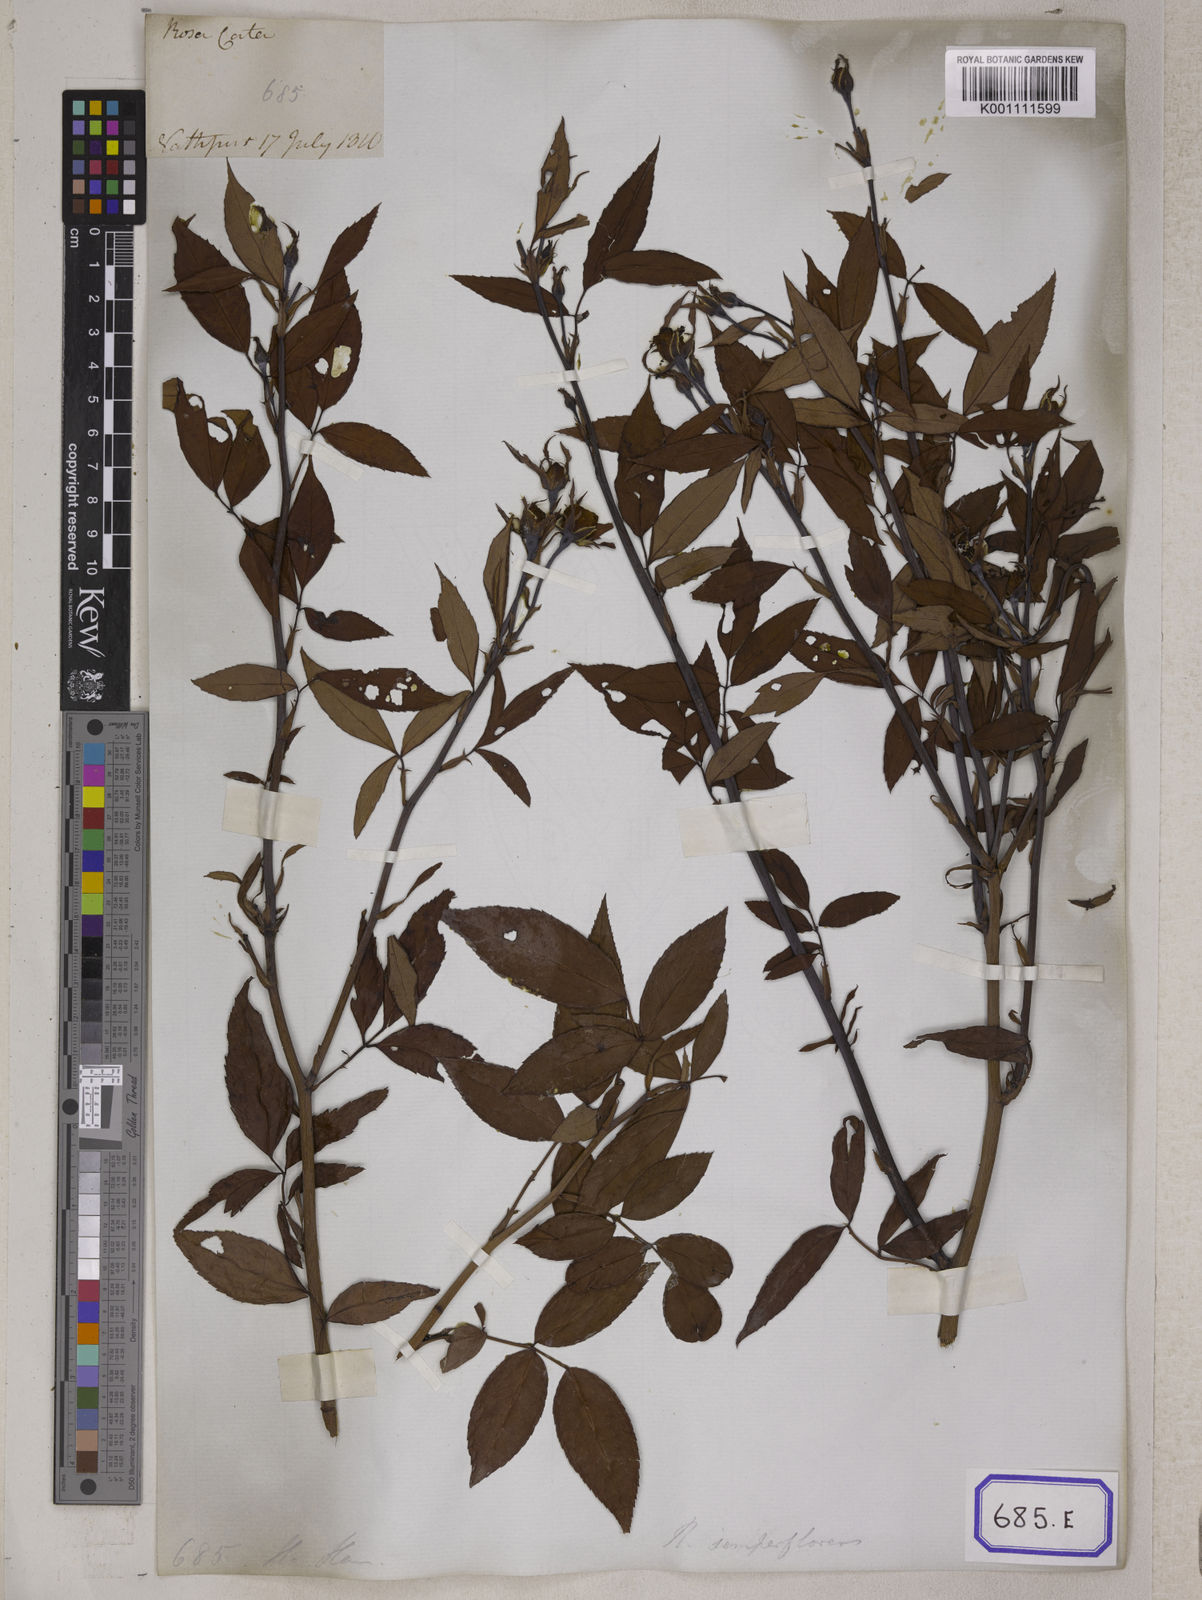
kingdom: Plantae
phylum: Tracheophyta
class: Magnoliopsida
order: Rosales
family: Rosaceae
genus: Rosa
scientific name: Rosa indica
